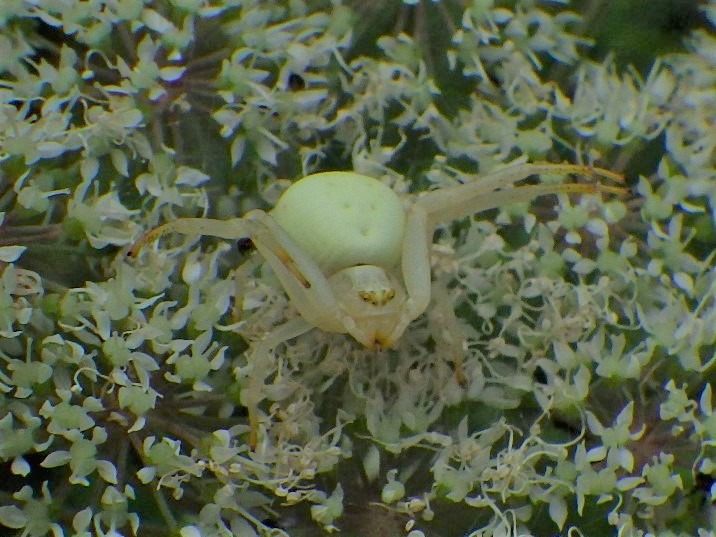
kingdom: Animalia
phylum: Arthropoda
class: Arachnida
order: Araneae
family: Thomisidae
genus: Misumena
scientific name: Misumena vatia
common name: Kamæleonedderkop
